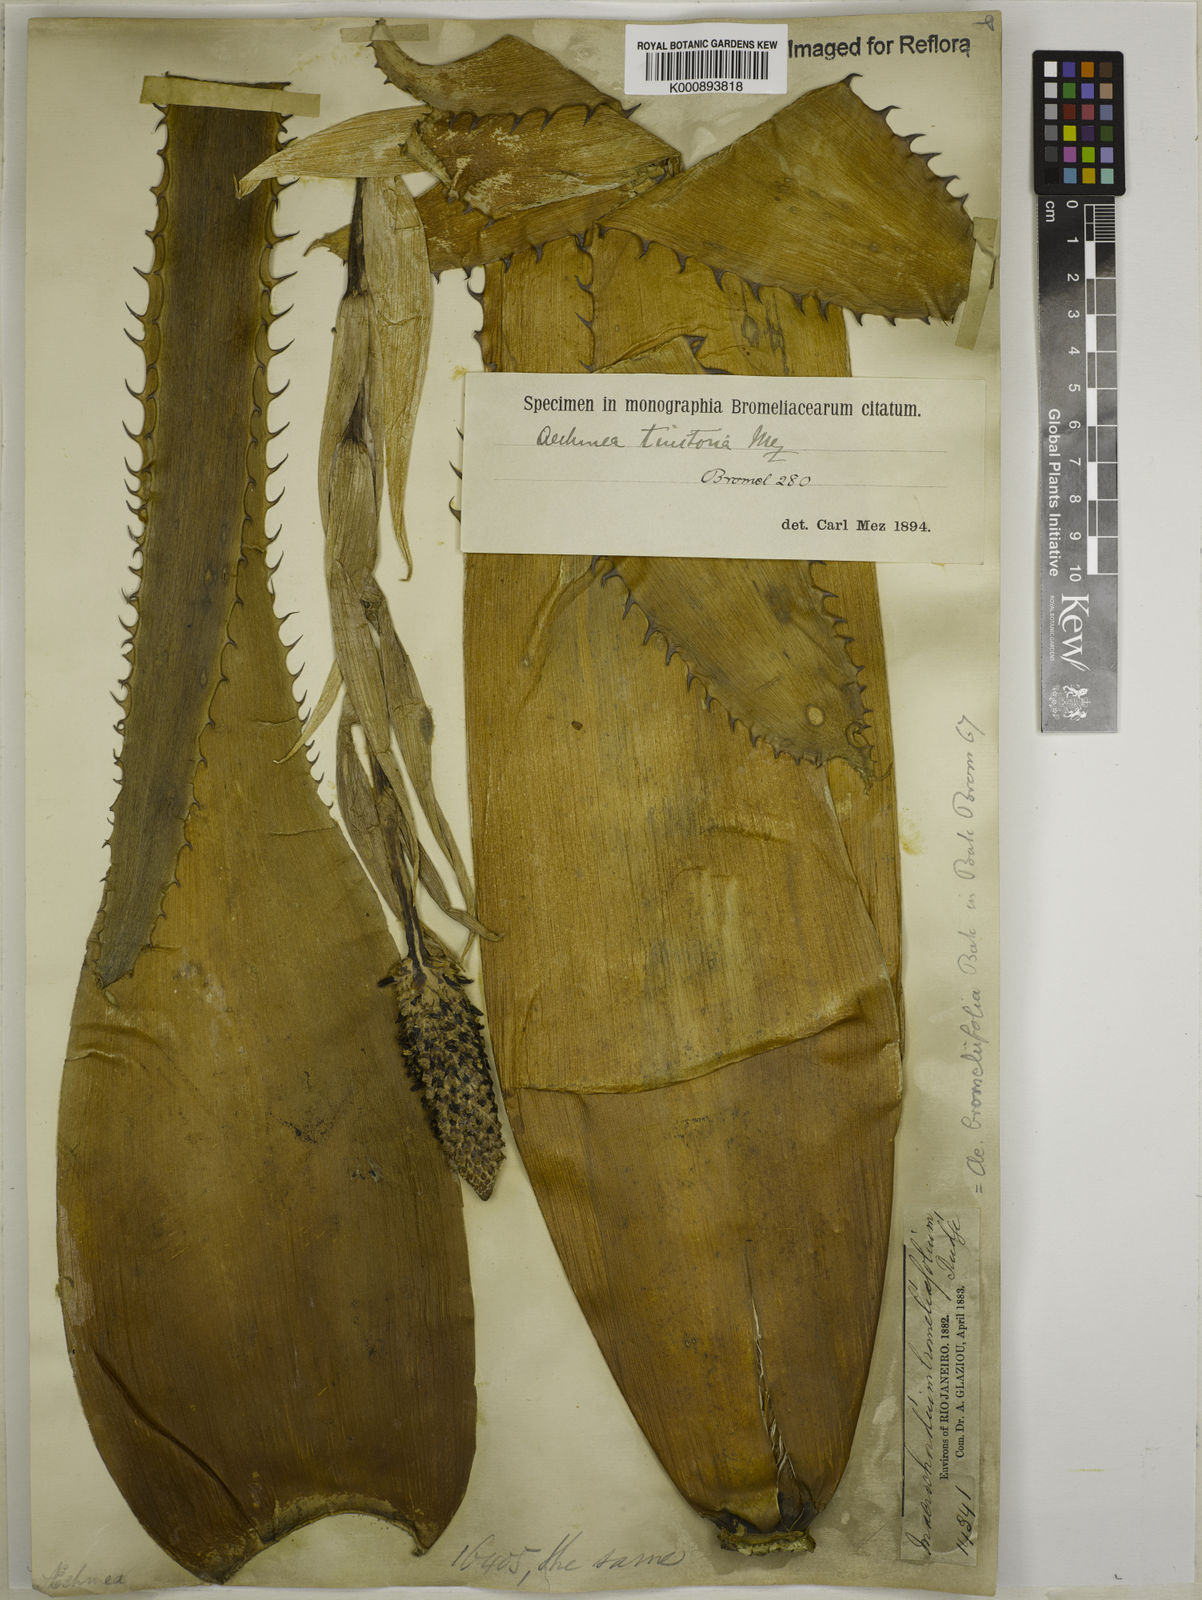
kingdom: Plantae
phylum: Tracheophyta
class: Liliopsida
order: Poales
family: Bromeliaceae
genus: Aechmea
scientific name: Aechmea
